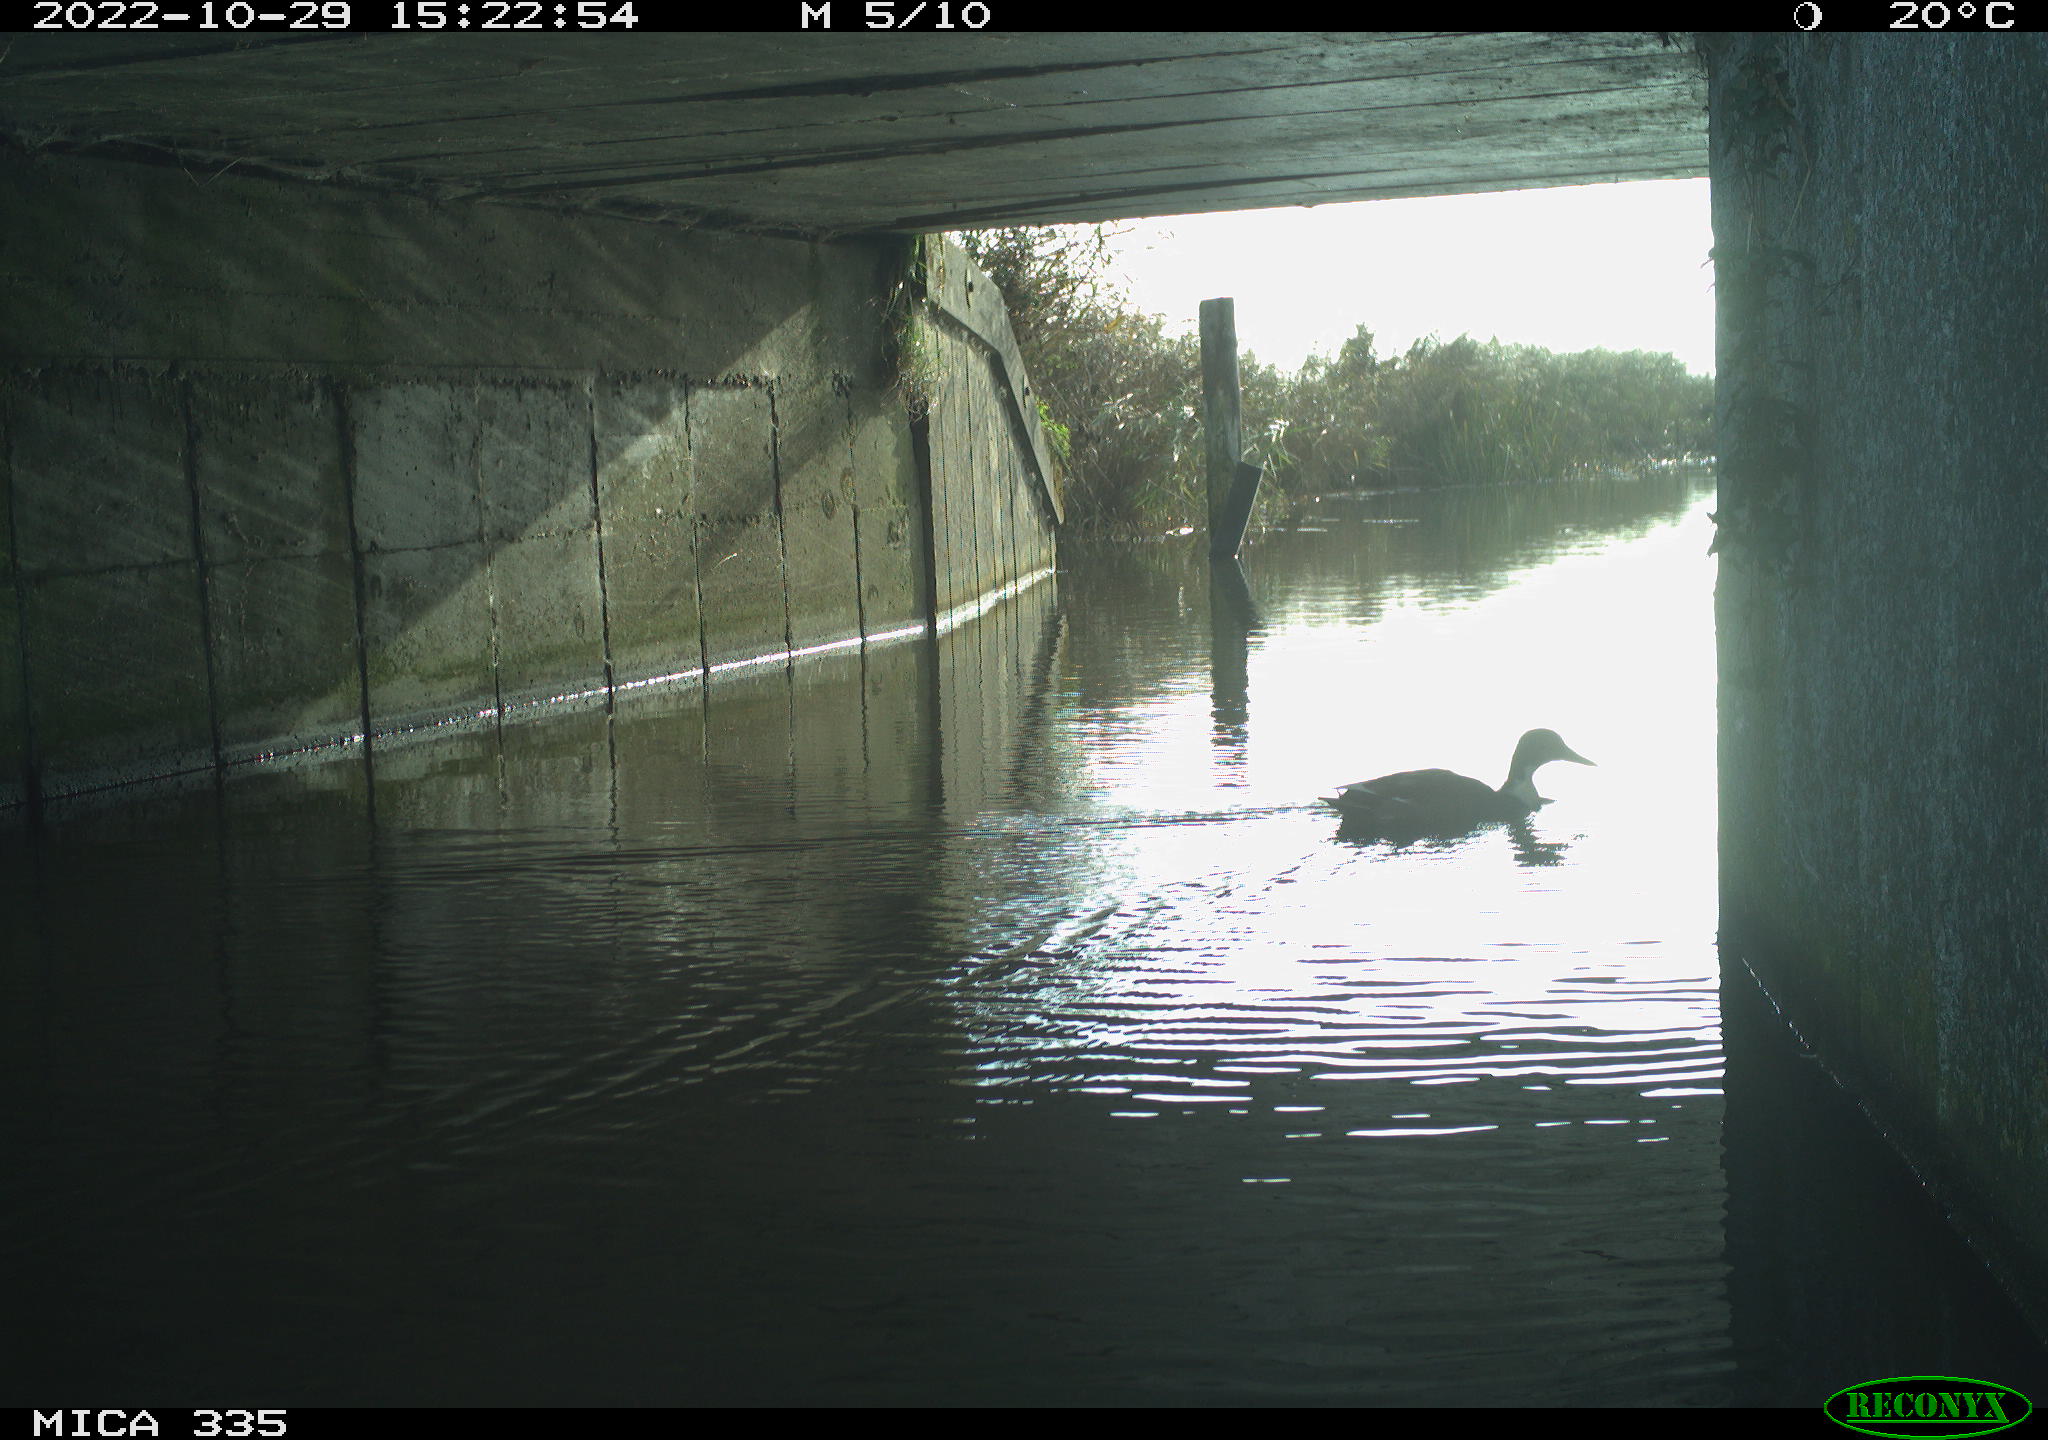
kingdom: Animalia
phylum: Chordata
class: Aves
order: Anseriformes
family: Anatidae
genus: Anas
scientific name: Anas platyrhynchos
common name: Mallard
